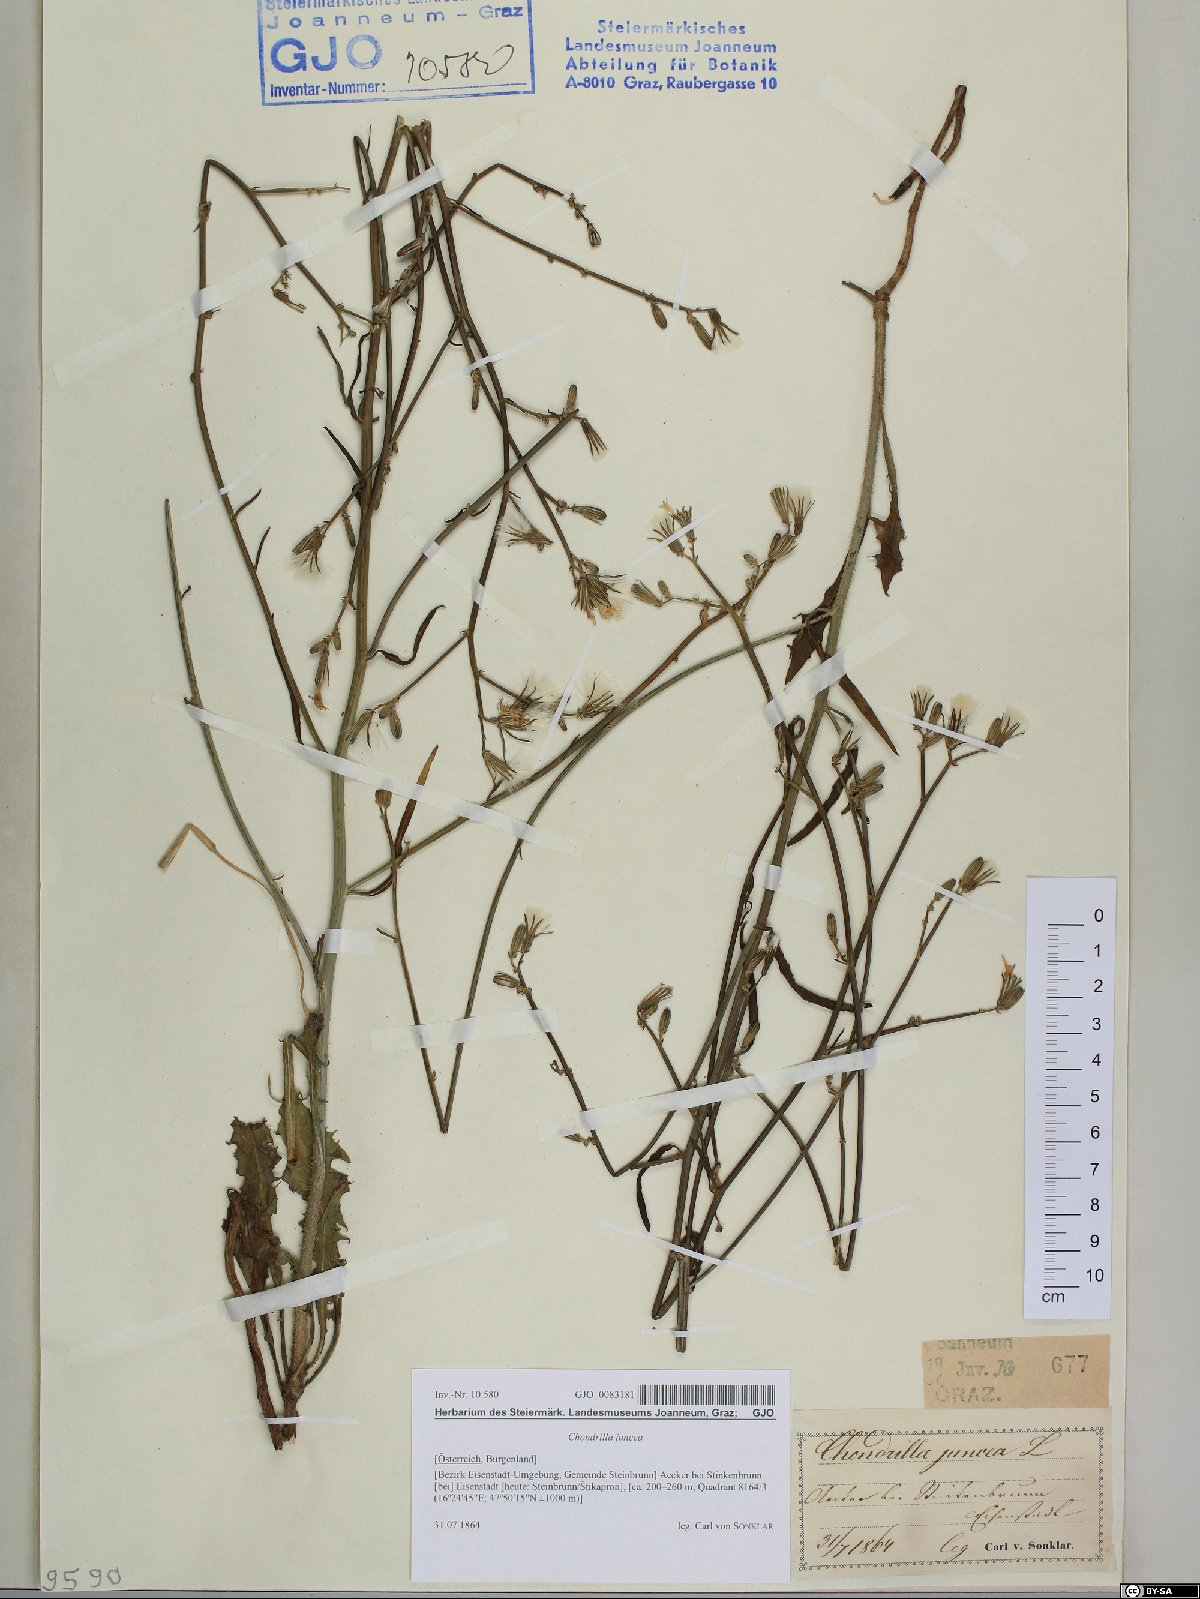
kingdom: Plantae
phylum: Tracheophyta
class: Magnoliopsida
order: Asterales
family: Asteraceae
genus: Chondrilla
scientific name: Chondrilla juncea
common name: Skeleton weed
